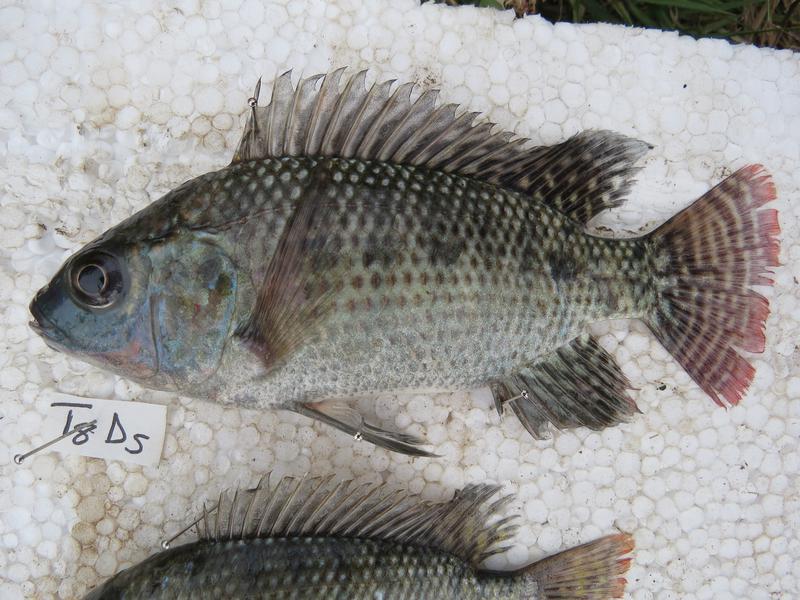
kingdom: Animalia
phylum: Chordata
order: Perciformes
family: Cichlidae
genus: Oreochromis
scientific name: Oreochromis niloticus
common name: Nile tilapia
